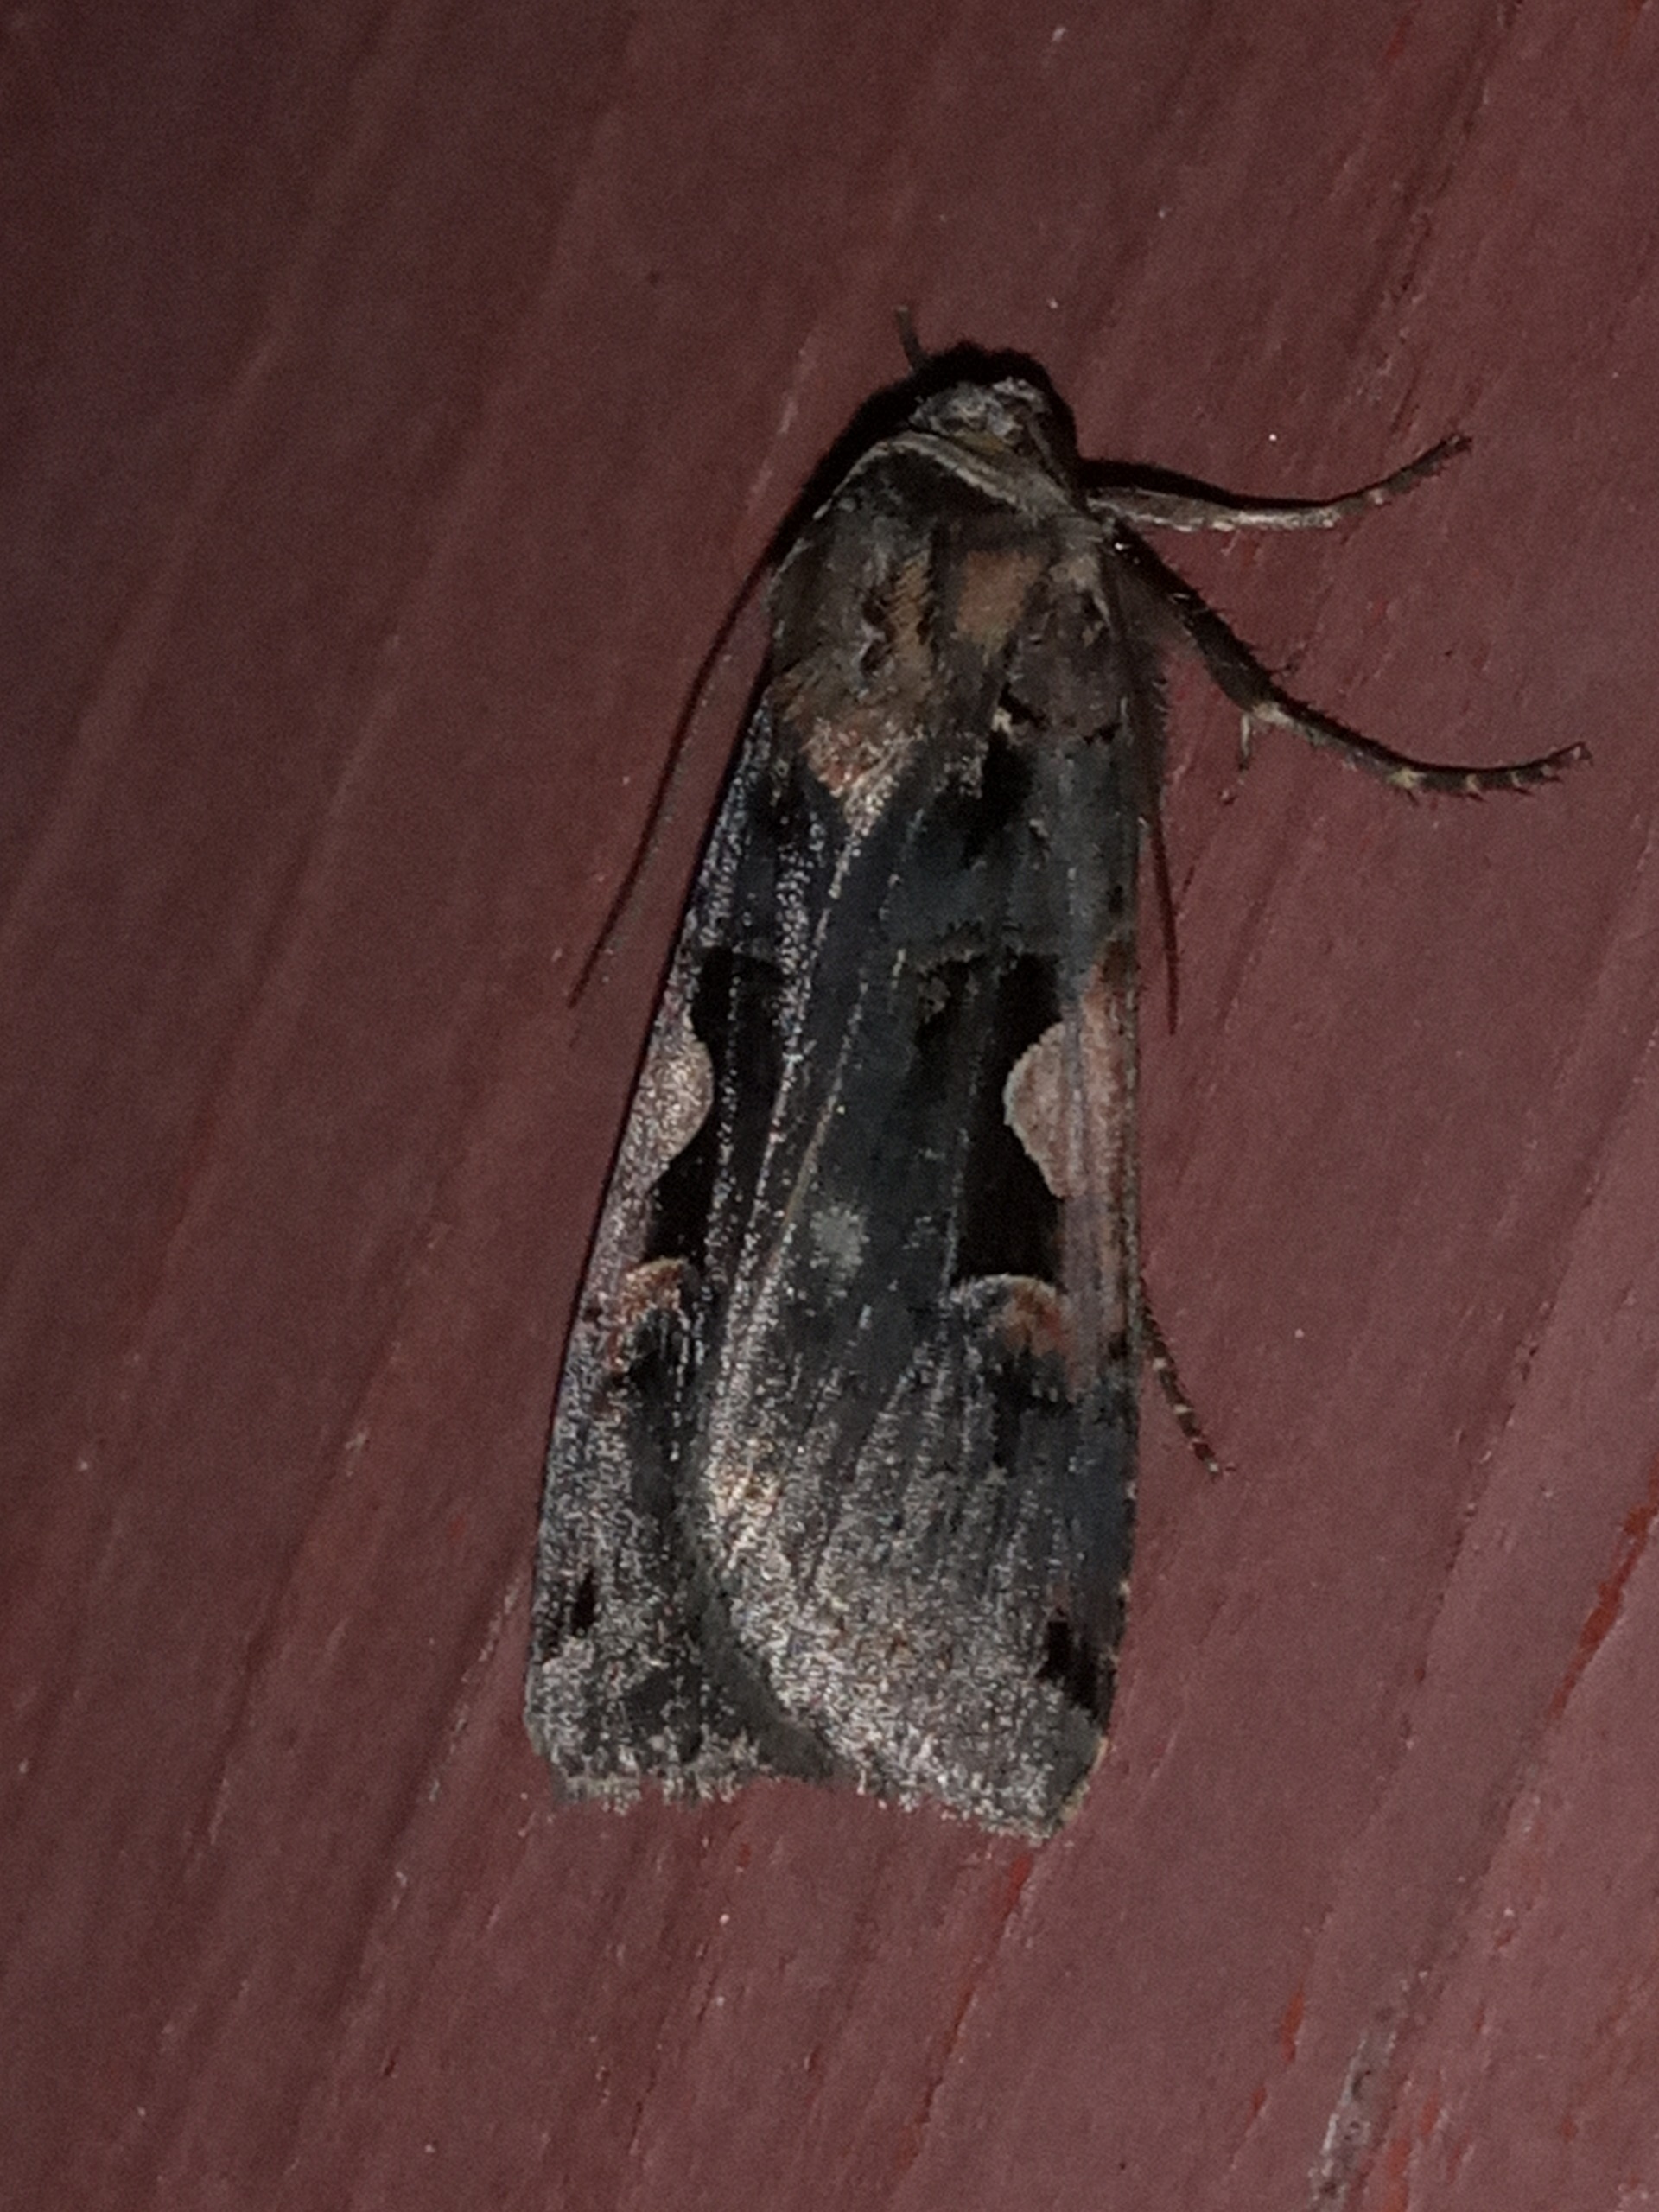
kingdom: Animalia
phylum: Arthropoda
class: Insecta
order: Lepidoptera
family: Noctuidae
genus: Xestia
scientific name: Xestia c-nigrum
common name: Det sorte c
